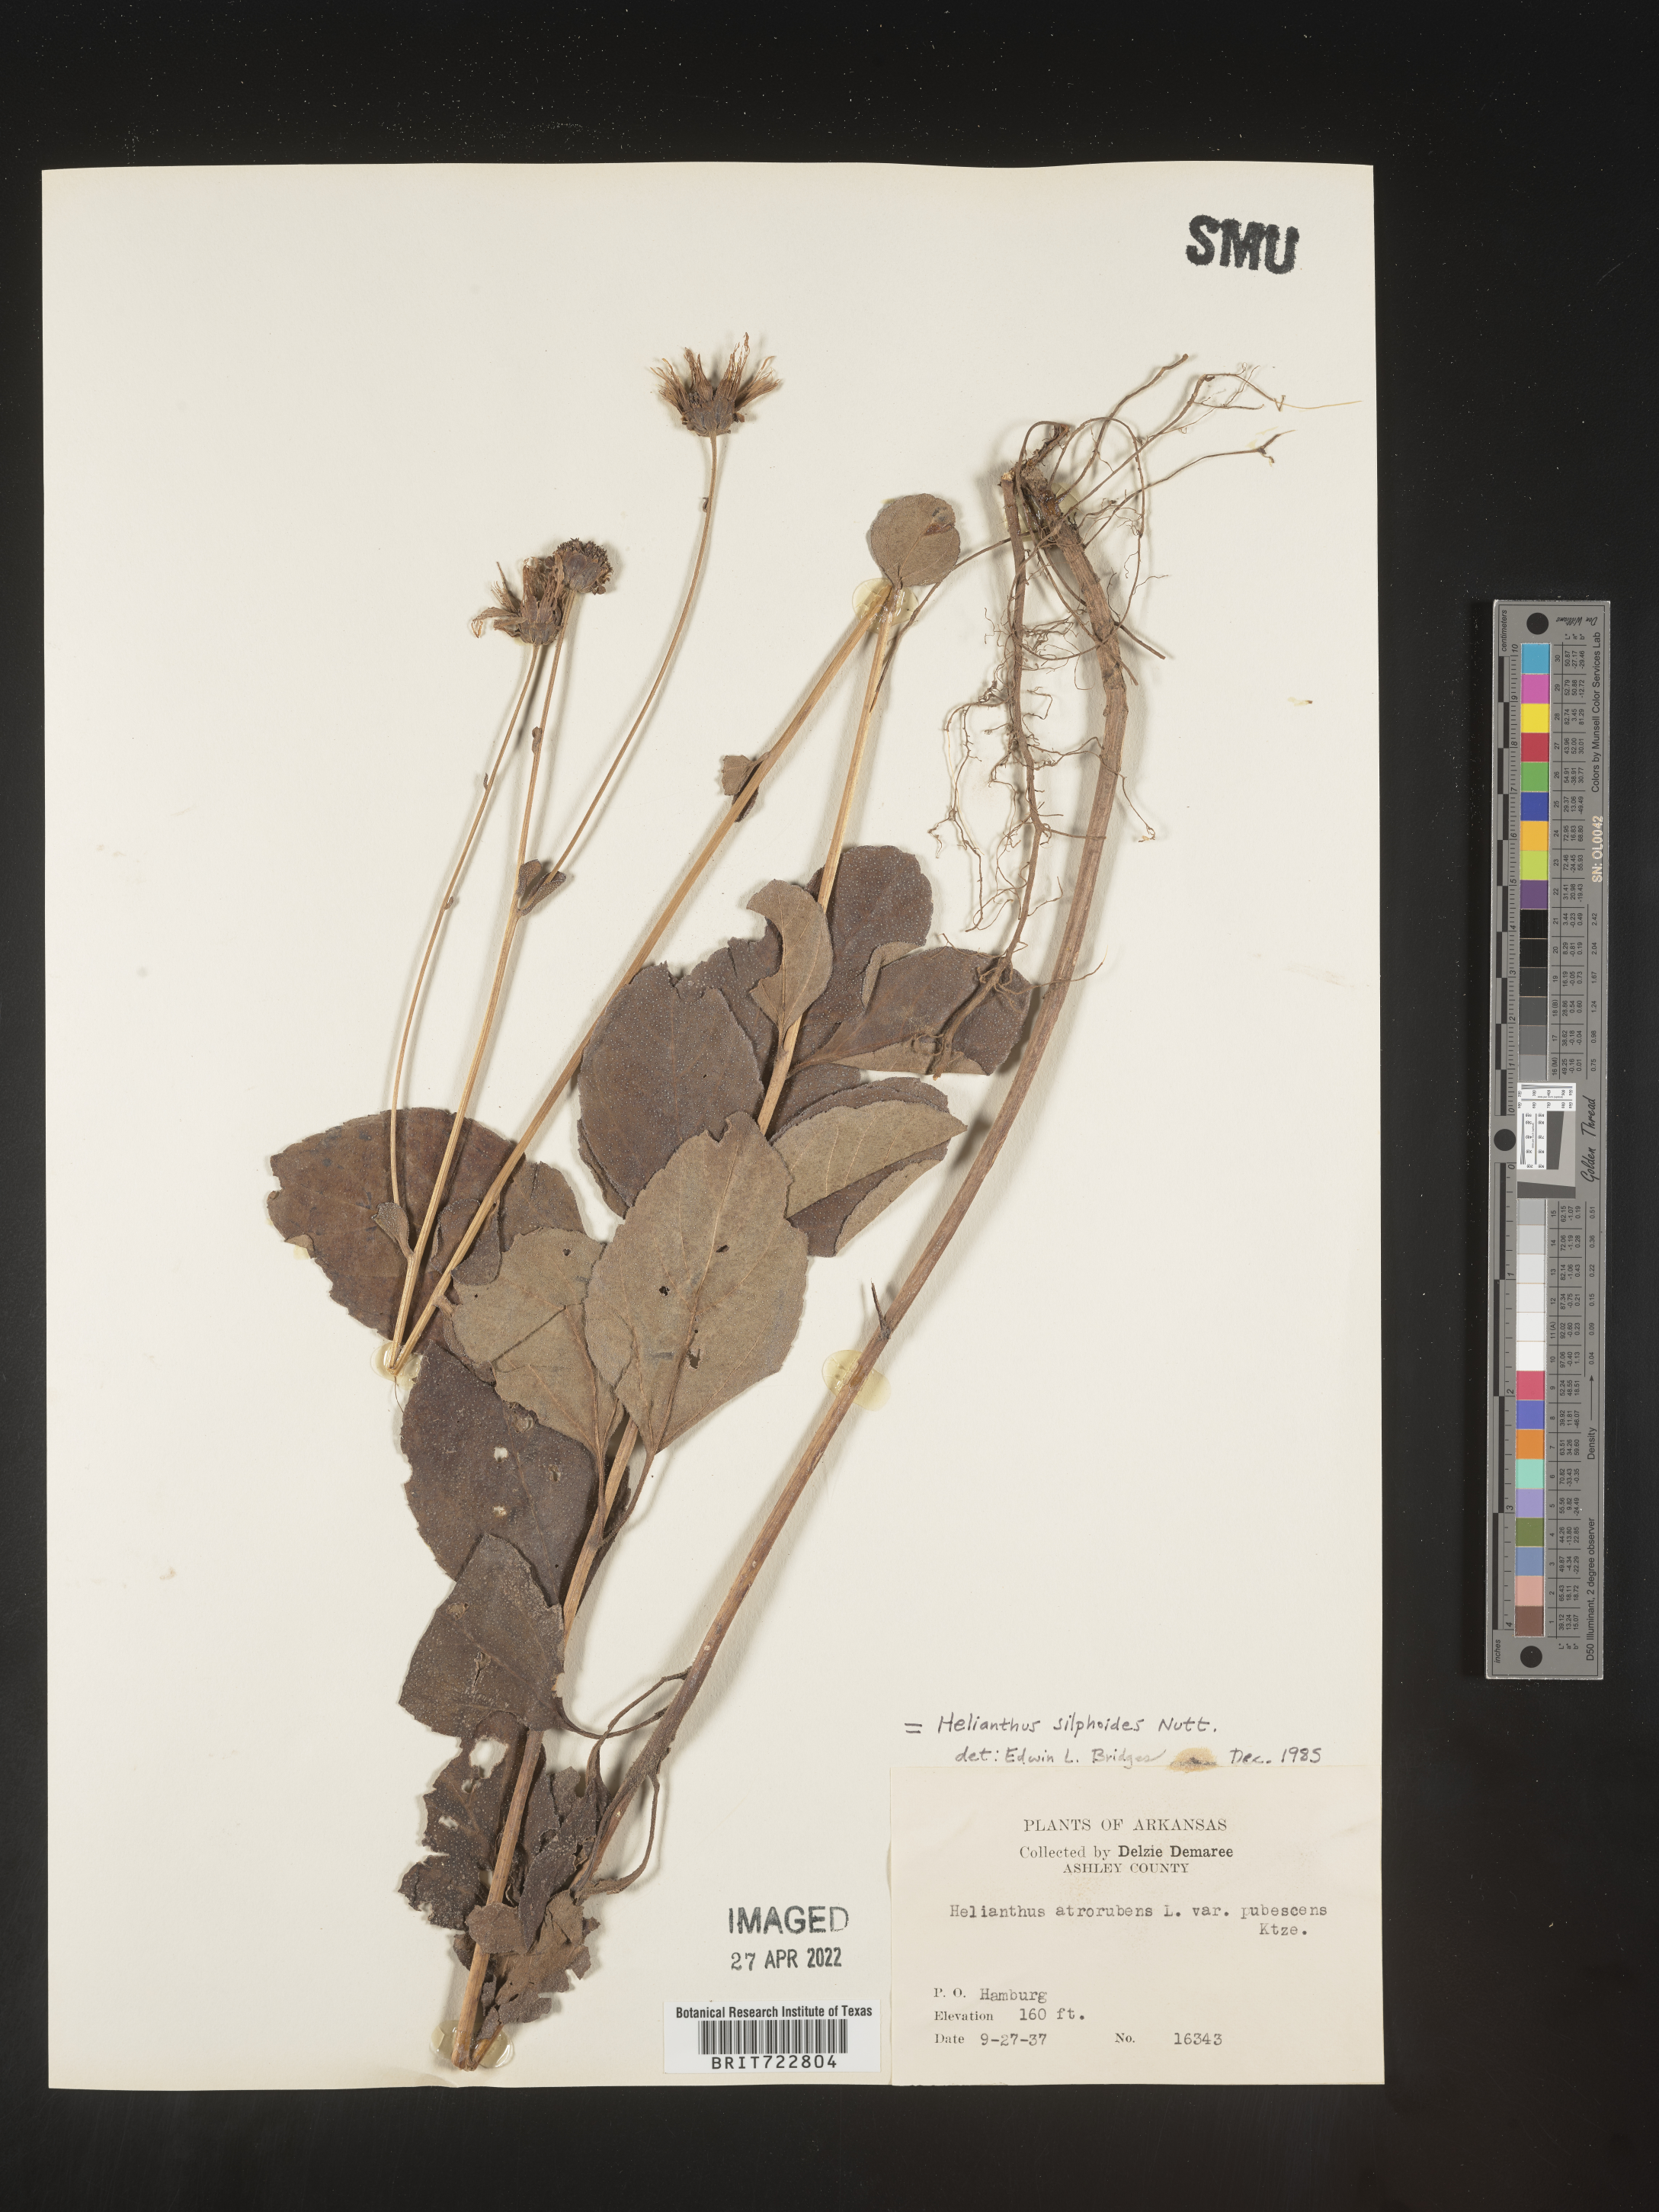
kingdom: Plantae
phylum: Tracheophyta
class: Magnoliopsida
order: Asterales
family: Asteraceae
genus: Helianthus
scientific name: Helianthus silphioides
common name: Odorous sunflower
